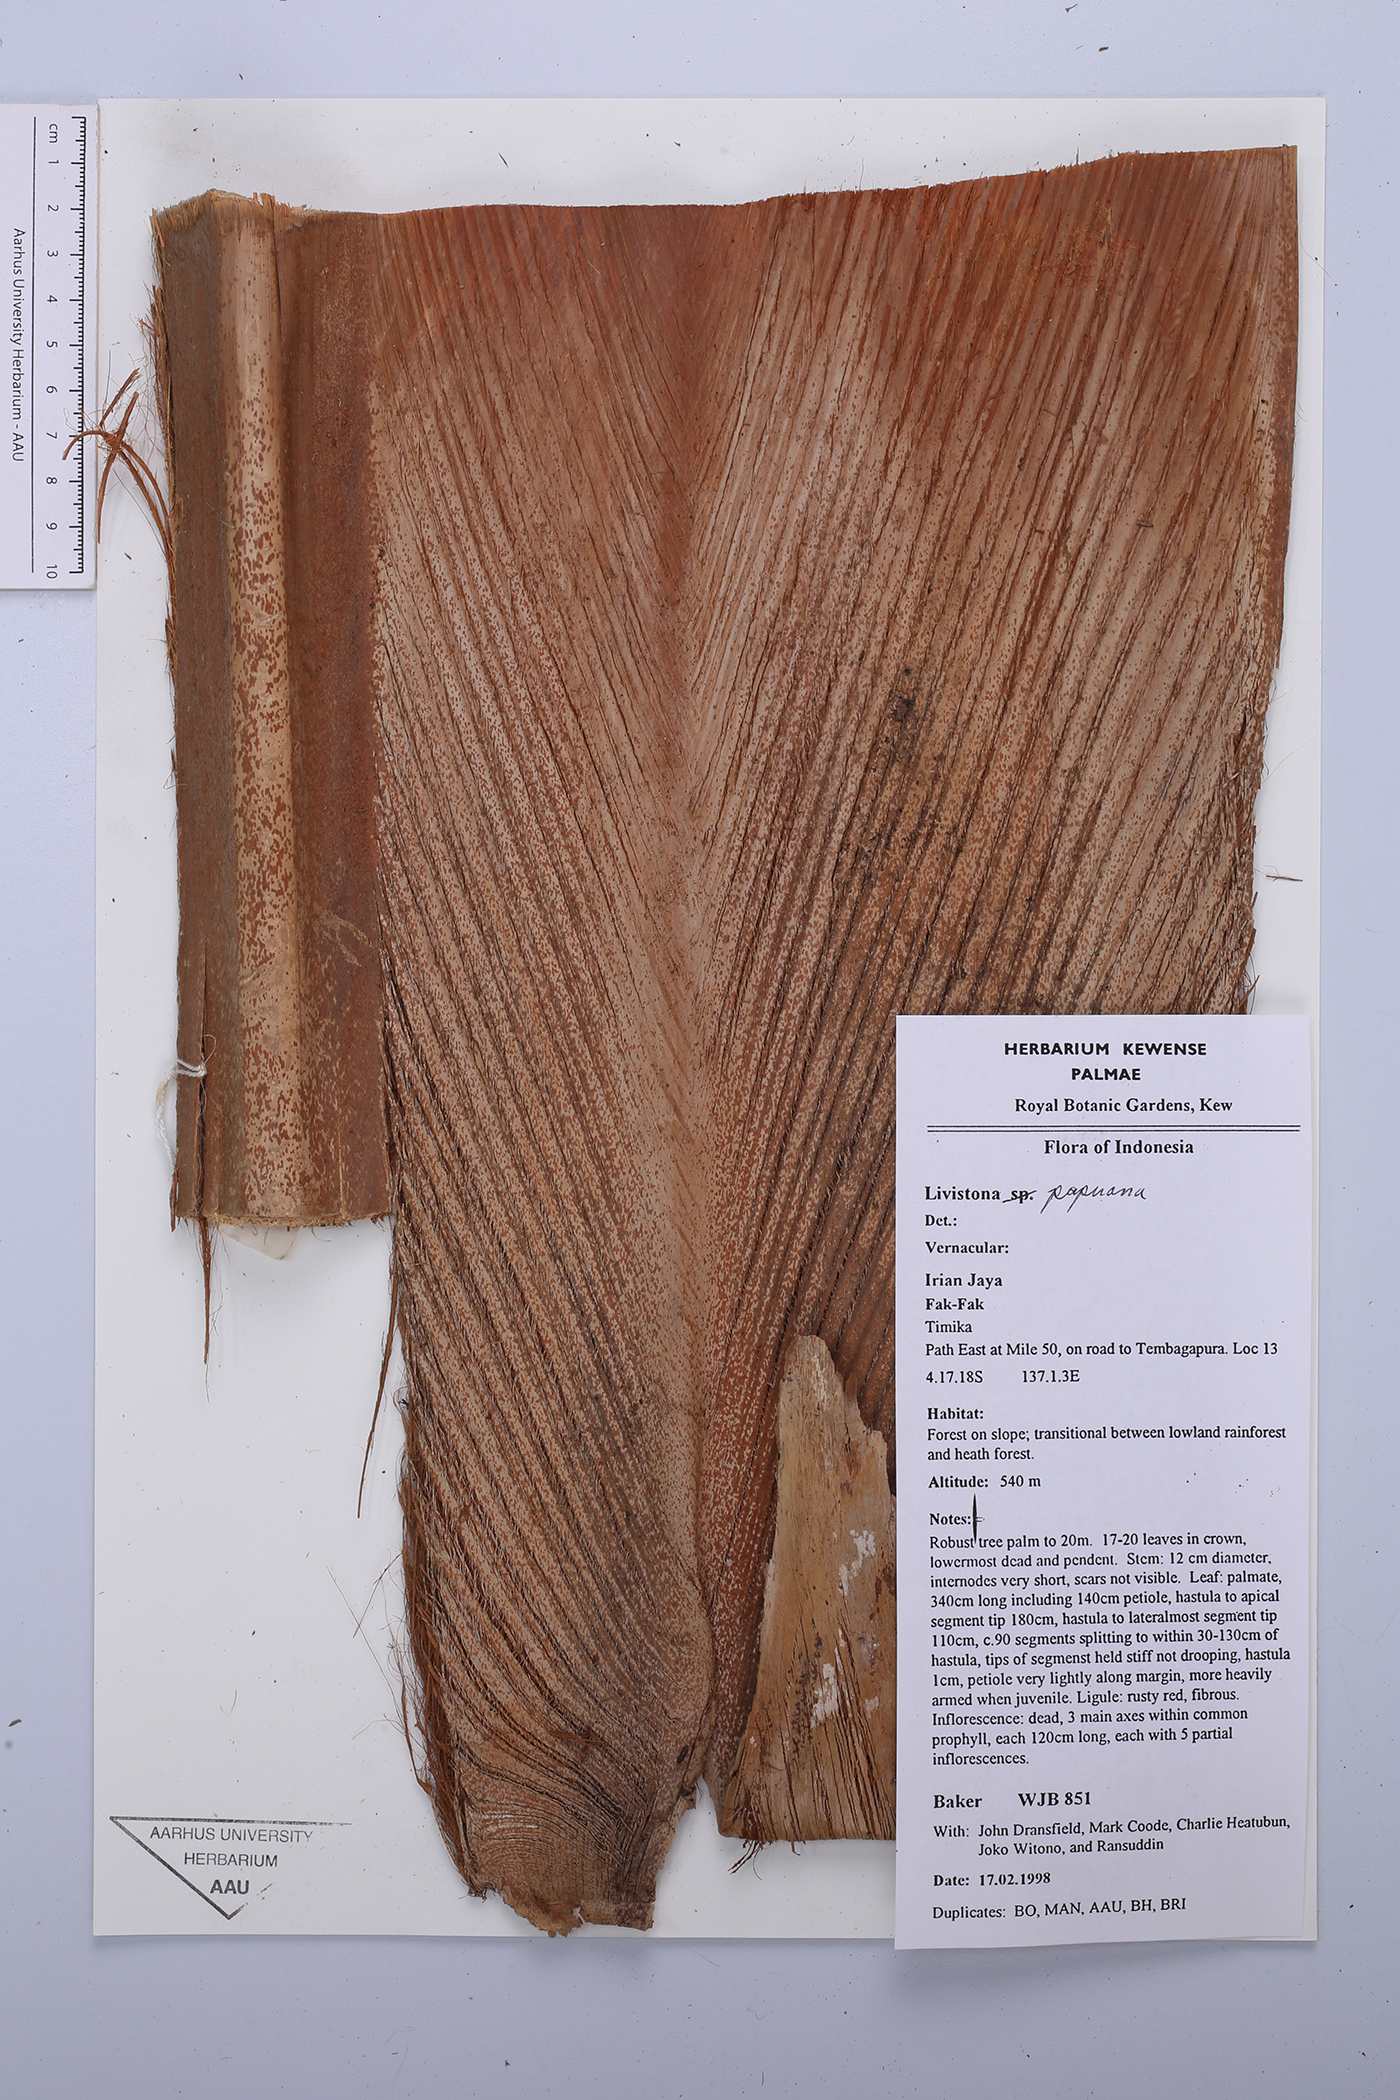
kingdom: Plantae
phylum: Tracheophyta
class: Liliopsida
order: Arecales
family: Arecaceae
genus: Saribus
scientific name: Saribus papuanus
